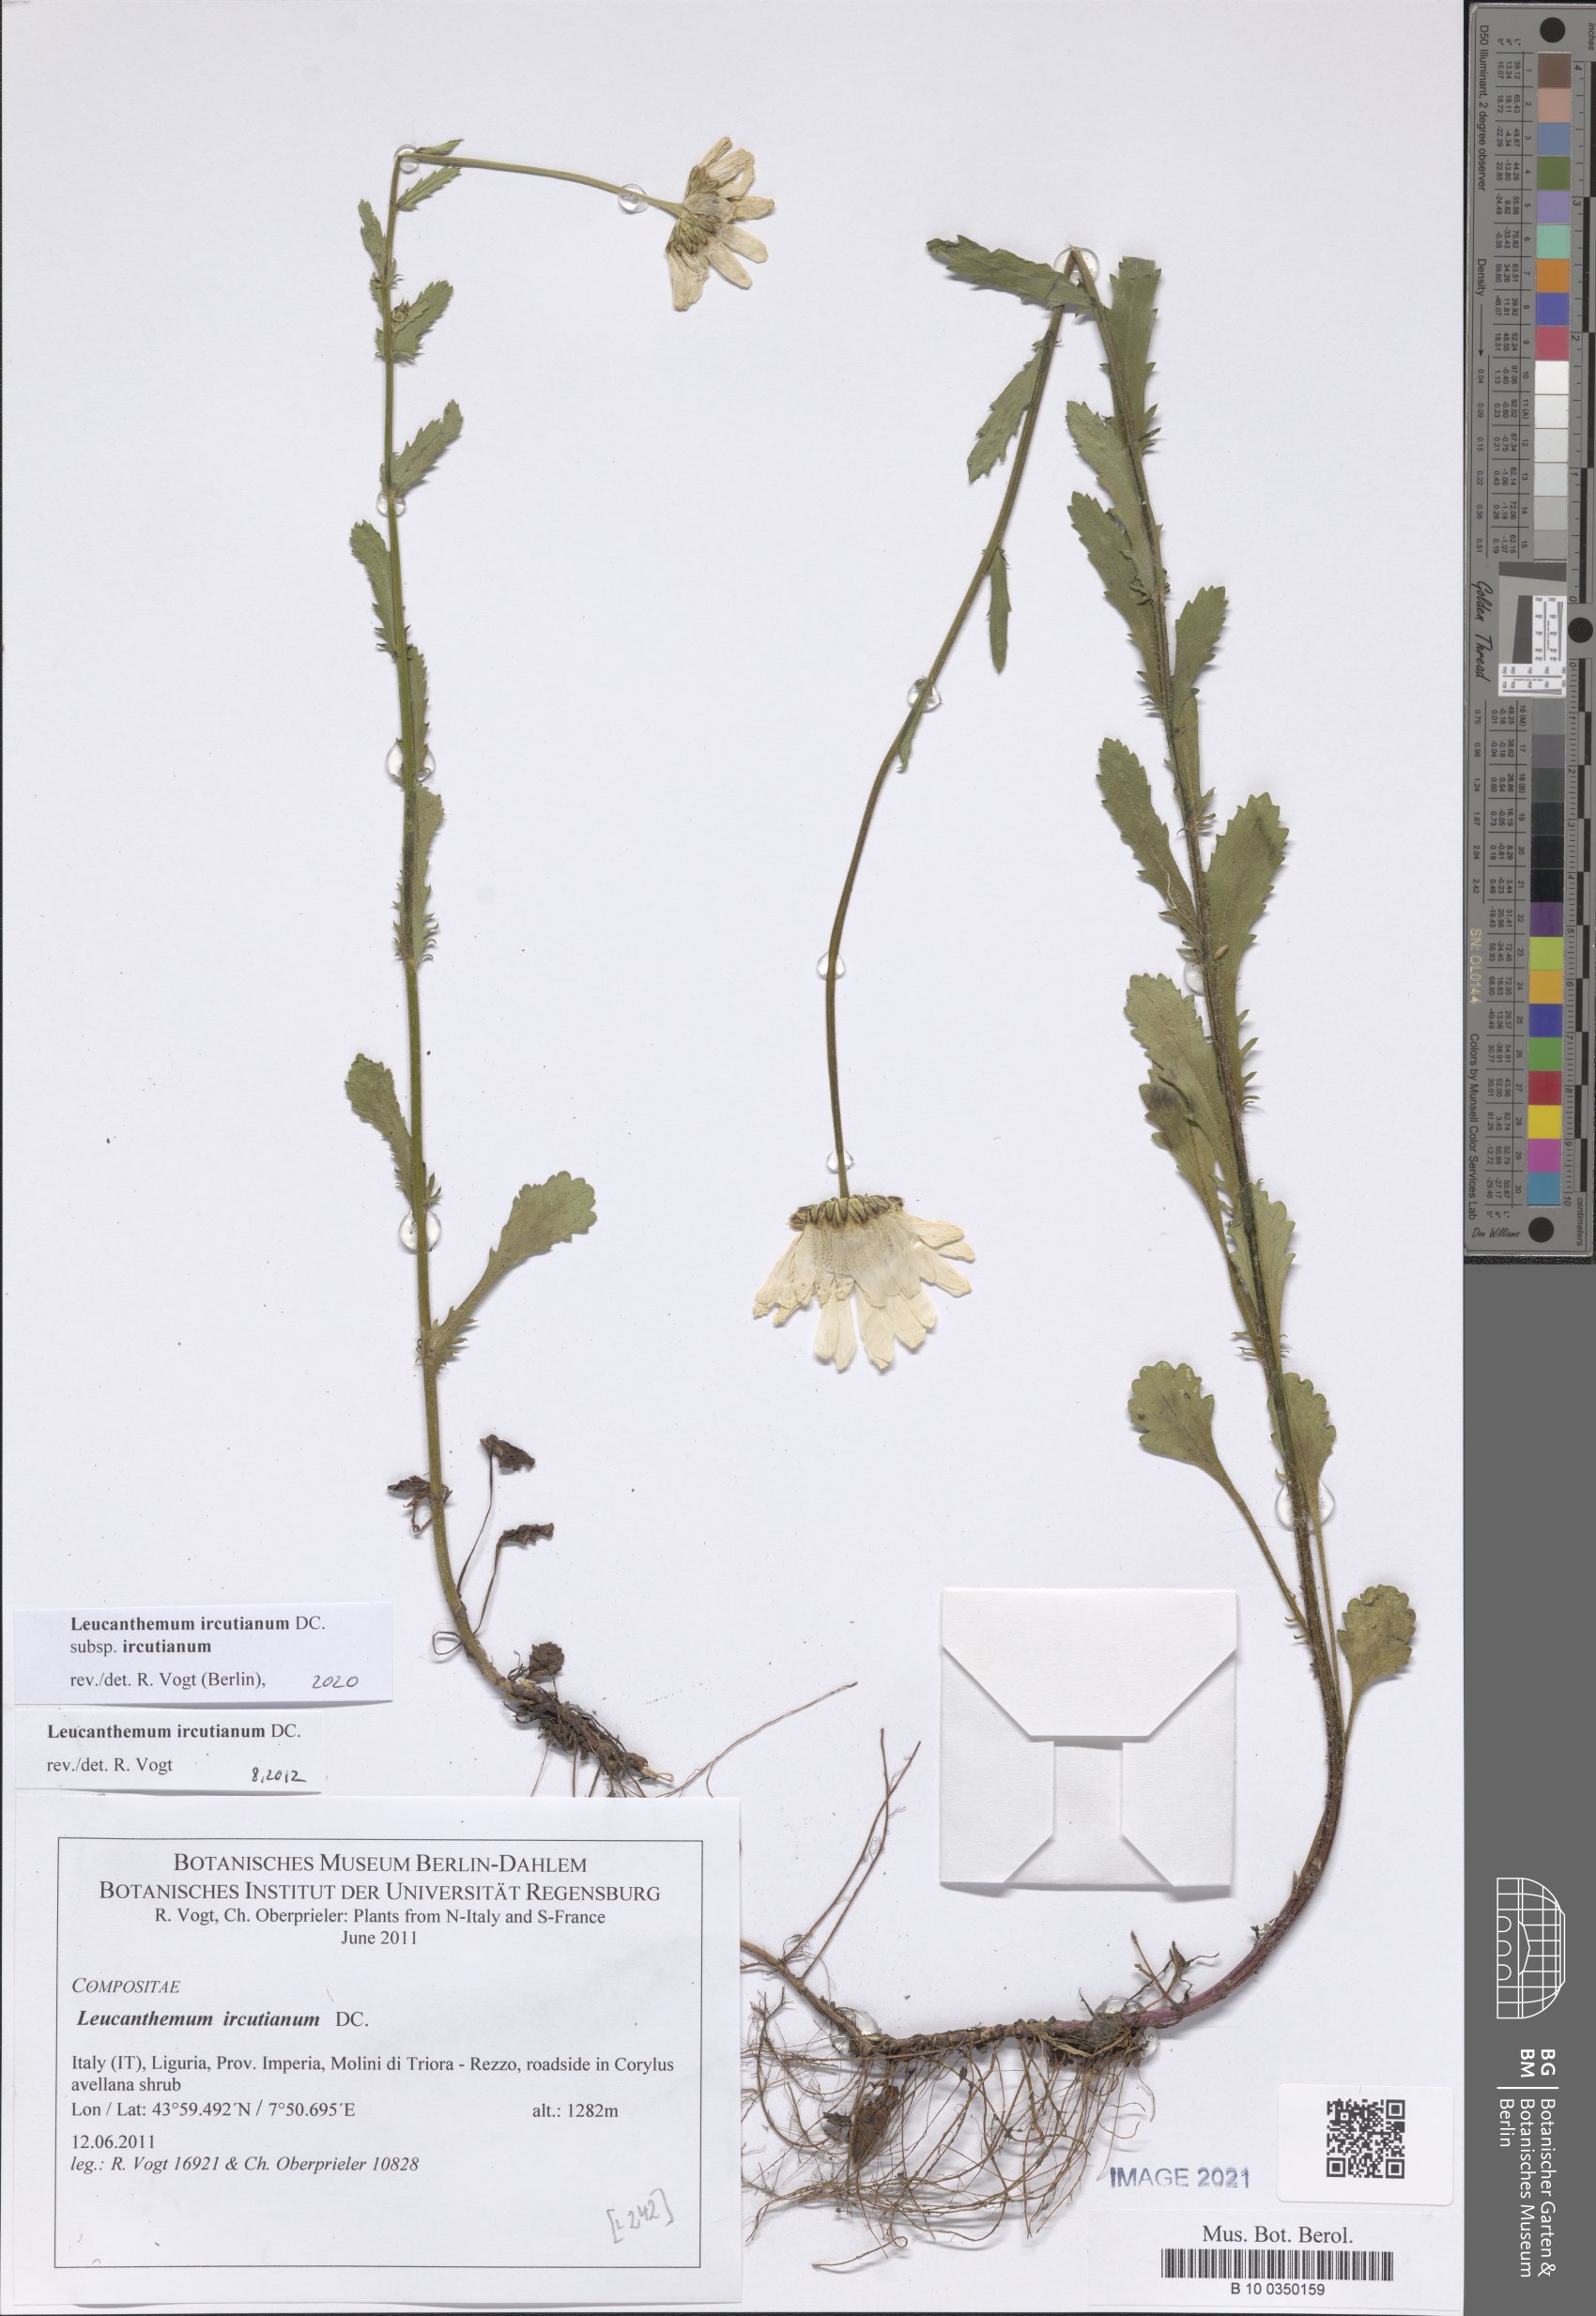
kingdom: Plantae
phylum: Tracheophyta
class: Magnoliopsida
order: Asterales
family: Asteraceae
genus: Leucanthemum
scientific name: Leucanthemum ircutianum
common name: Daisy
